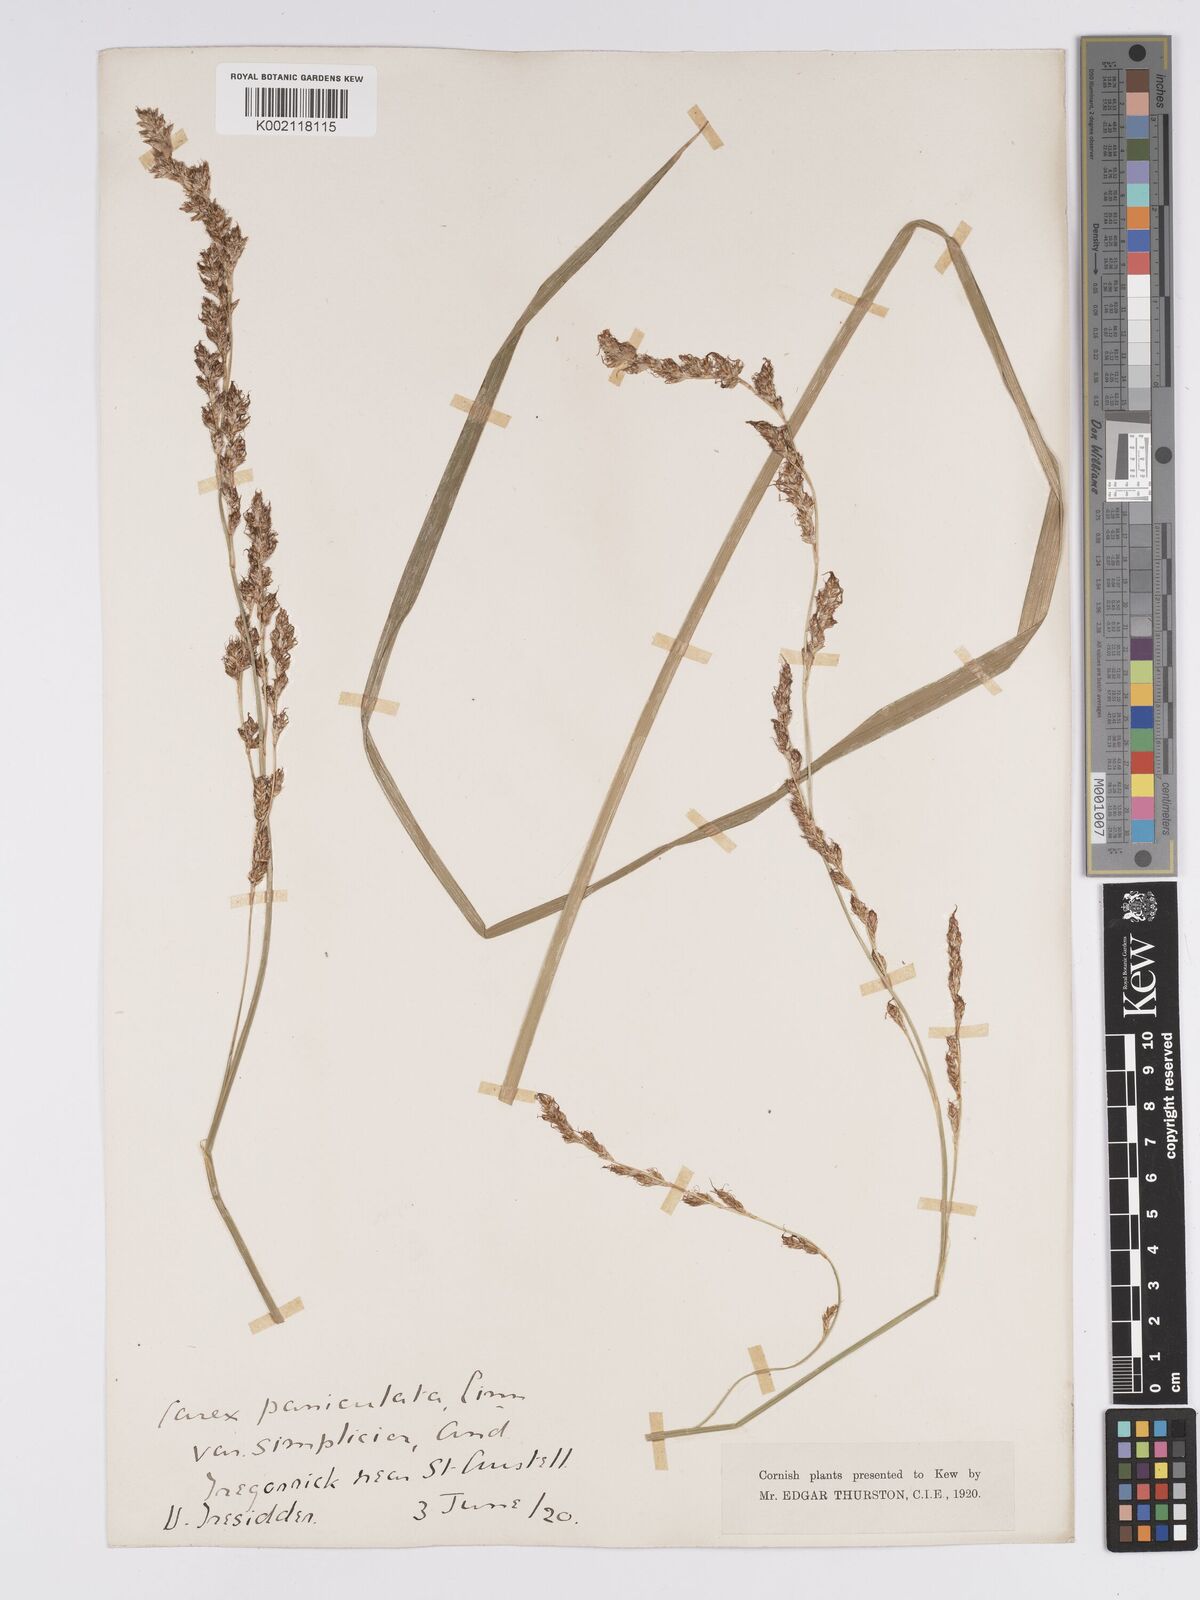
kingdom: Plantae
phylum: Tracheophyta
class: Liliopsida
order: Poales
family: Cyperaceae
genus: Carex
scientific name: Carex paniculata
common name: Greater tussock-sedge
